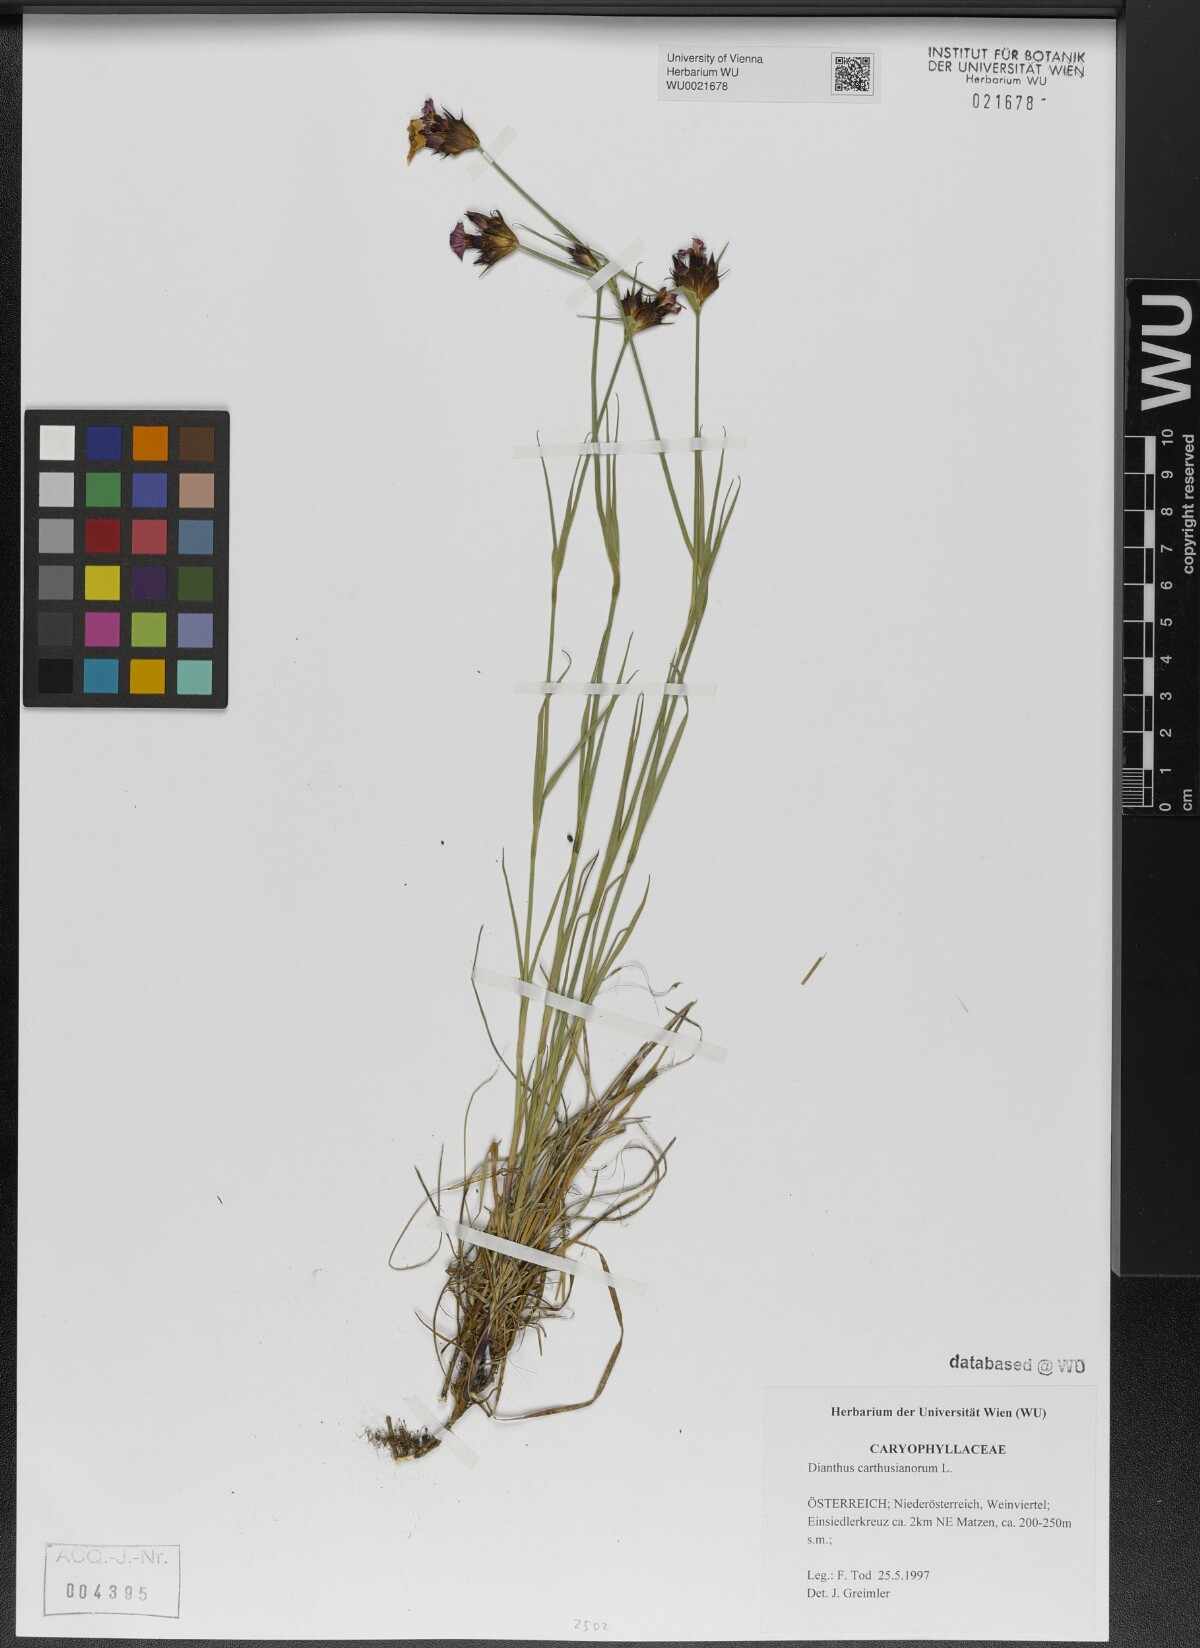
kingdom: Plantae
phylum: Tracheophyta
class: Magnoliopsida
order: Caryophyllales
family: Caryophyllaceae
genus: Dianthus
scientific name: Dianthus carthusianorum
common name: Carthusian pink
